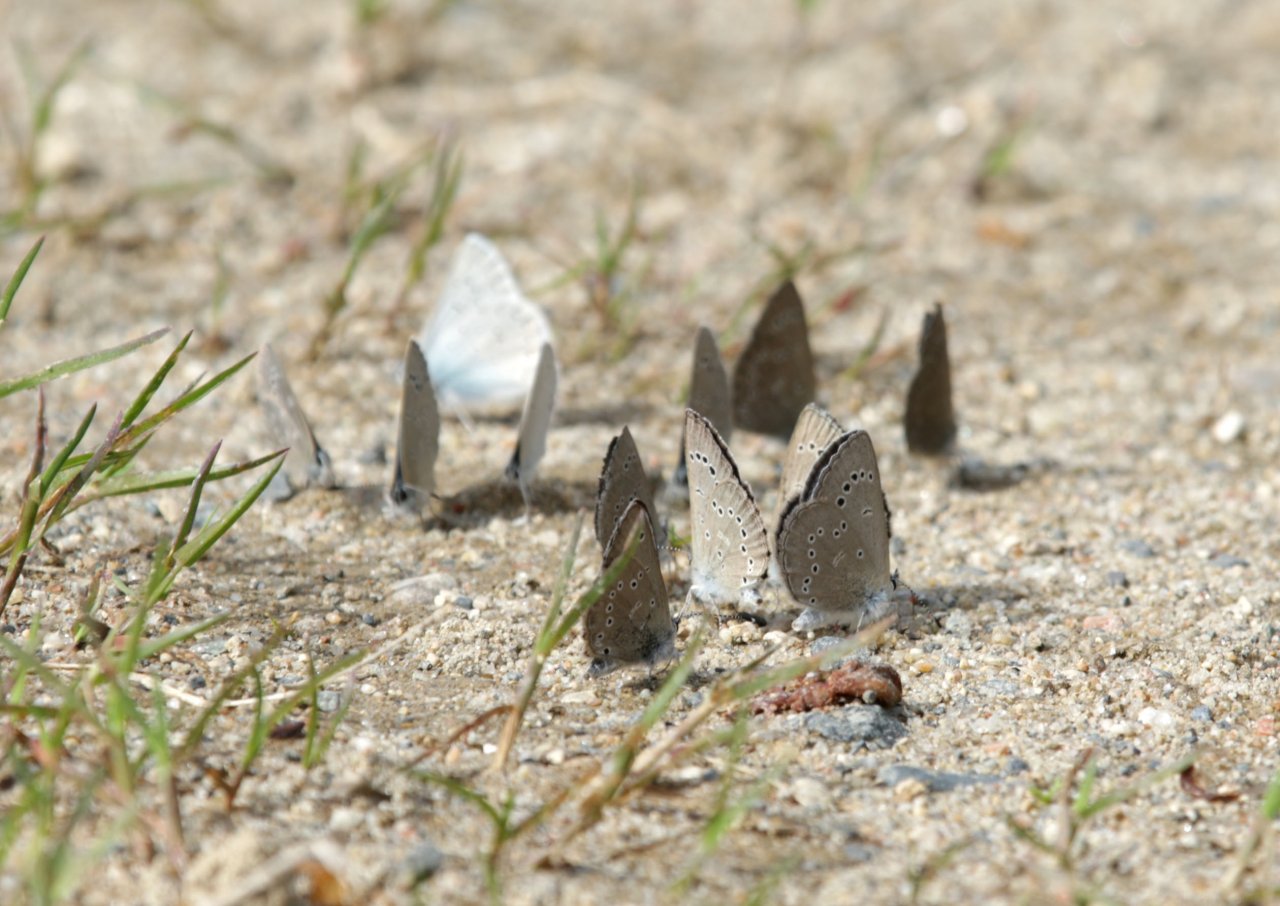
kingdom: Animalia
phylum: Arthropoda
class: Insecta
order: Lepidoptera
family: Lycaenidae
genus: Glaucopsyche
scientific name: Glaucopsyche lygdamus
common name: Silvery Blue
